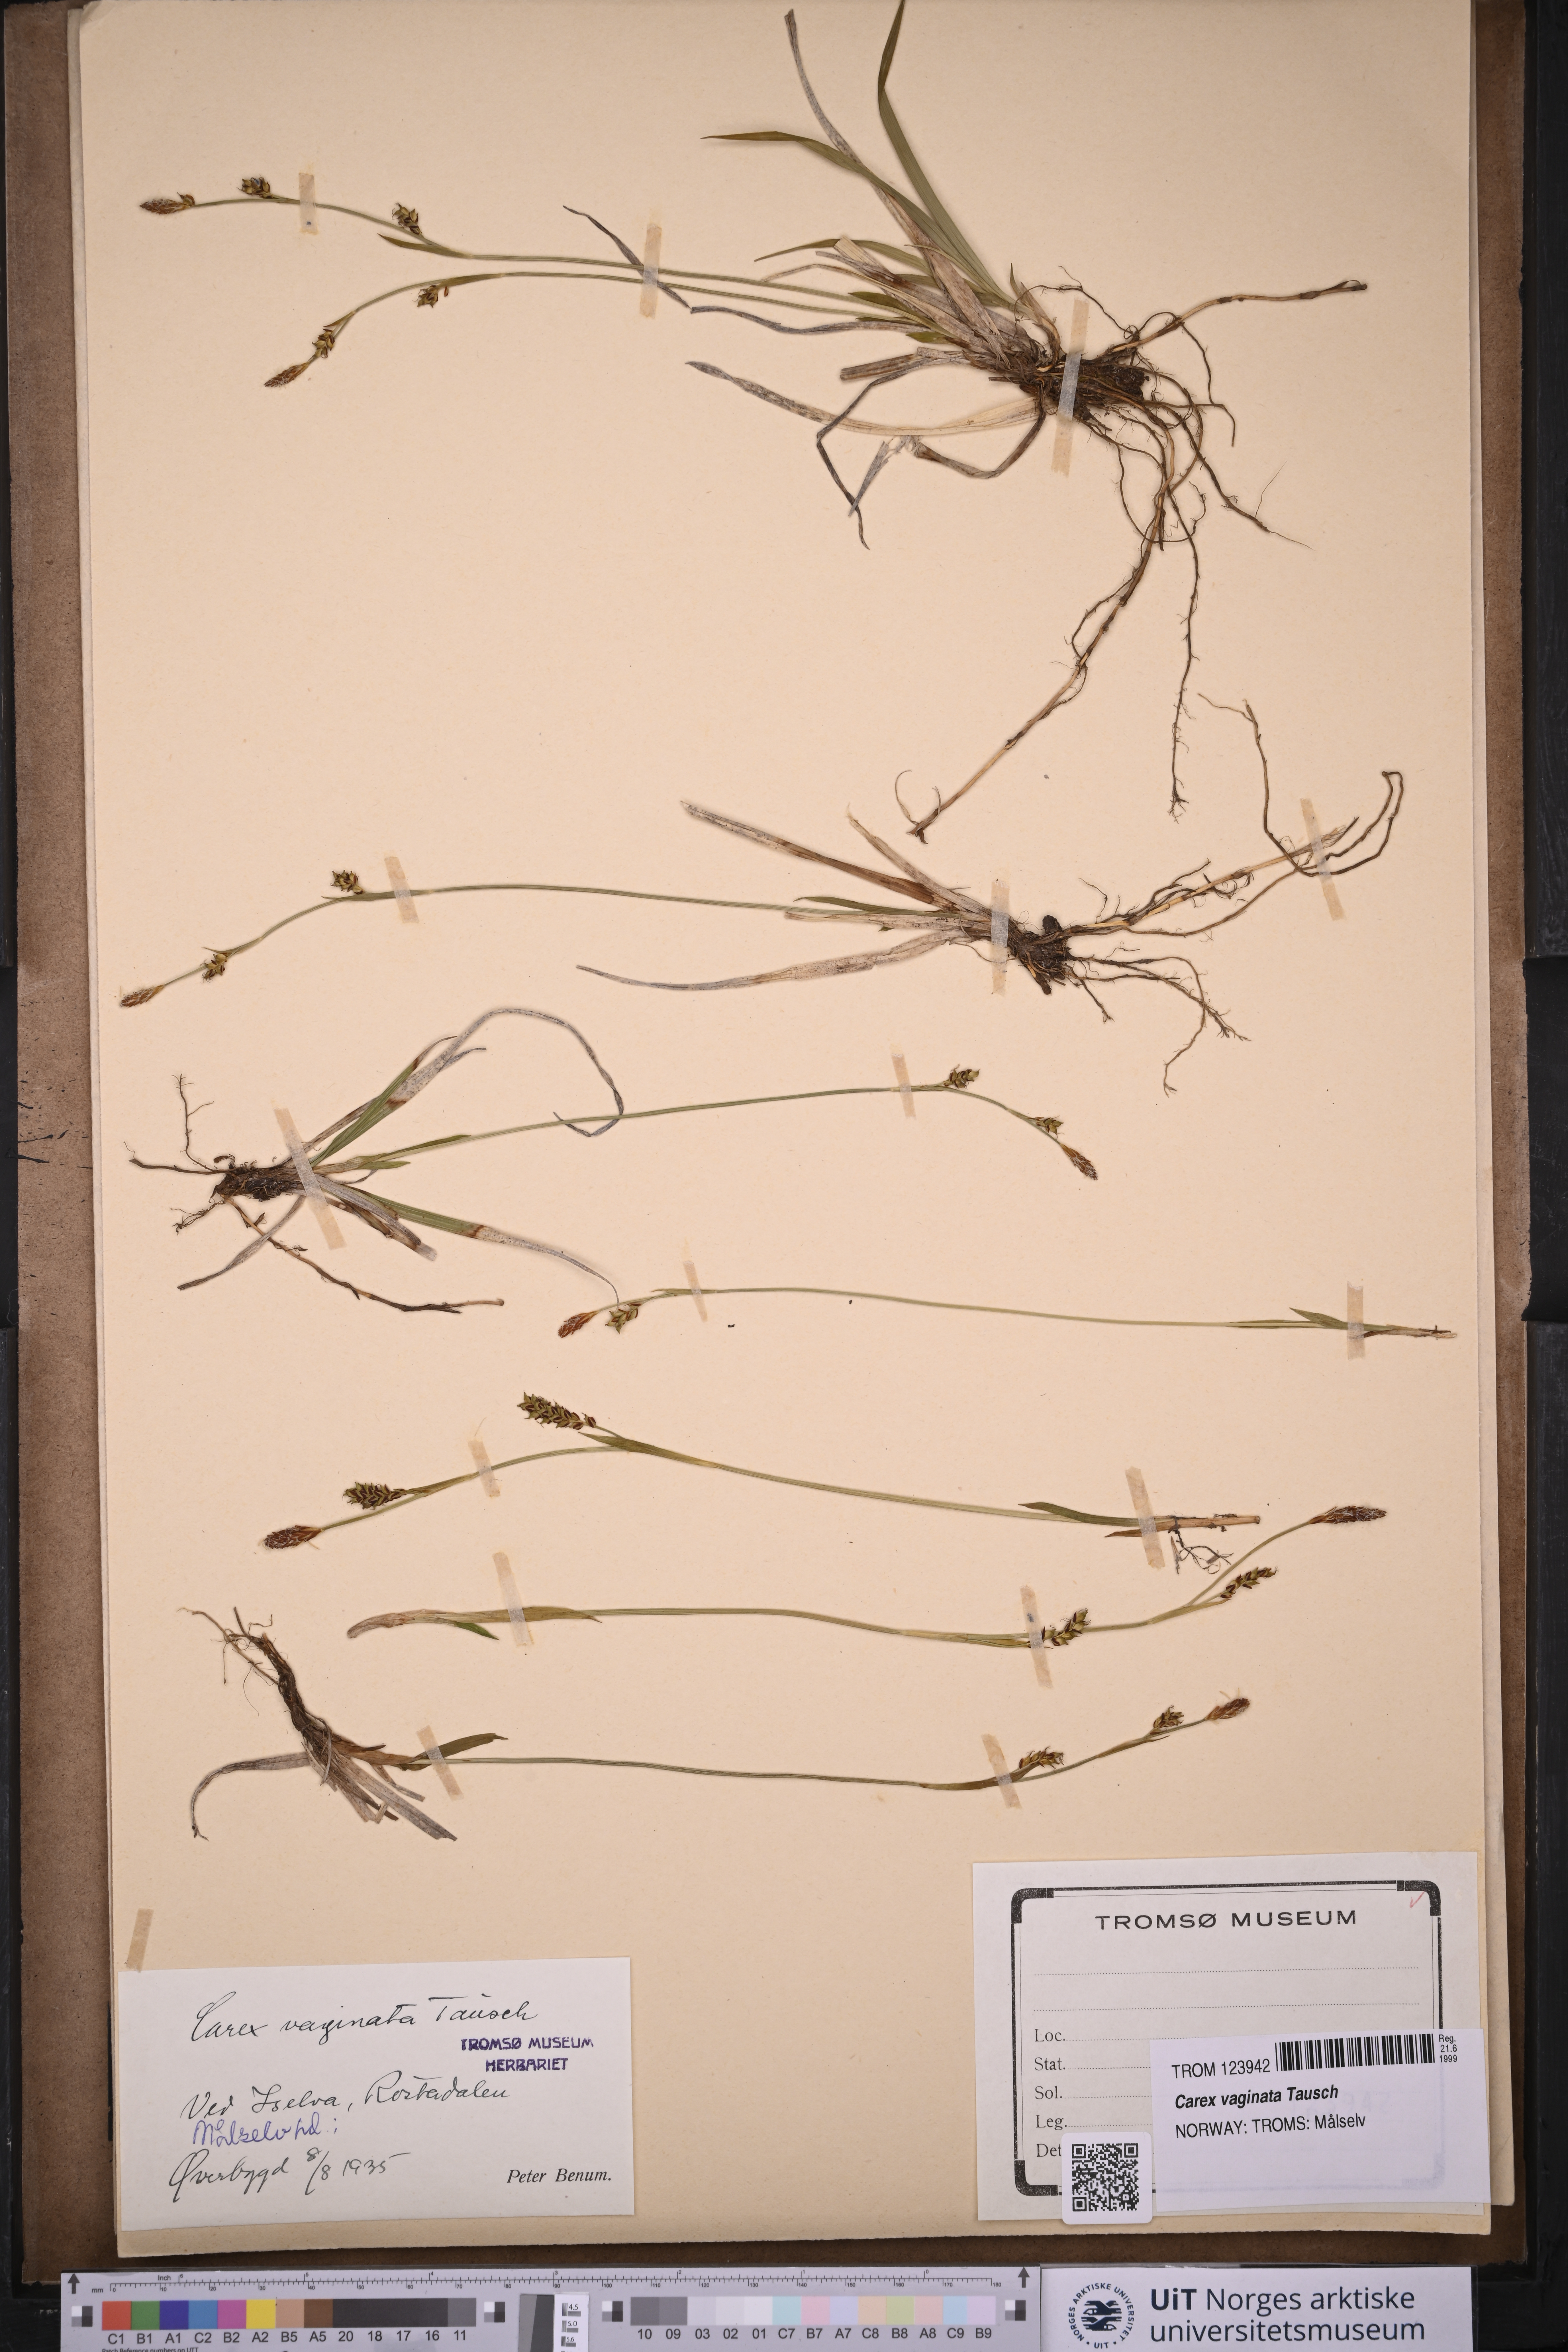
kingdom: Plantae
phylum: Tracheophyta
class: Liliopsida
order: Poales
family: Cyperaceae
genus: Carex
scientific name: Carex vaginata
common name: Sheathed sedge
